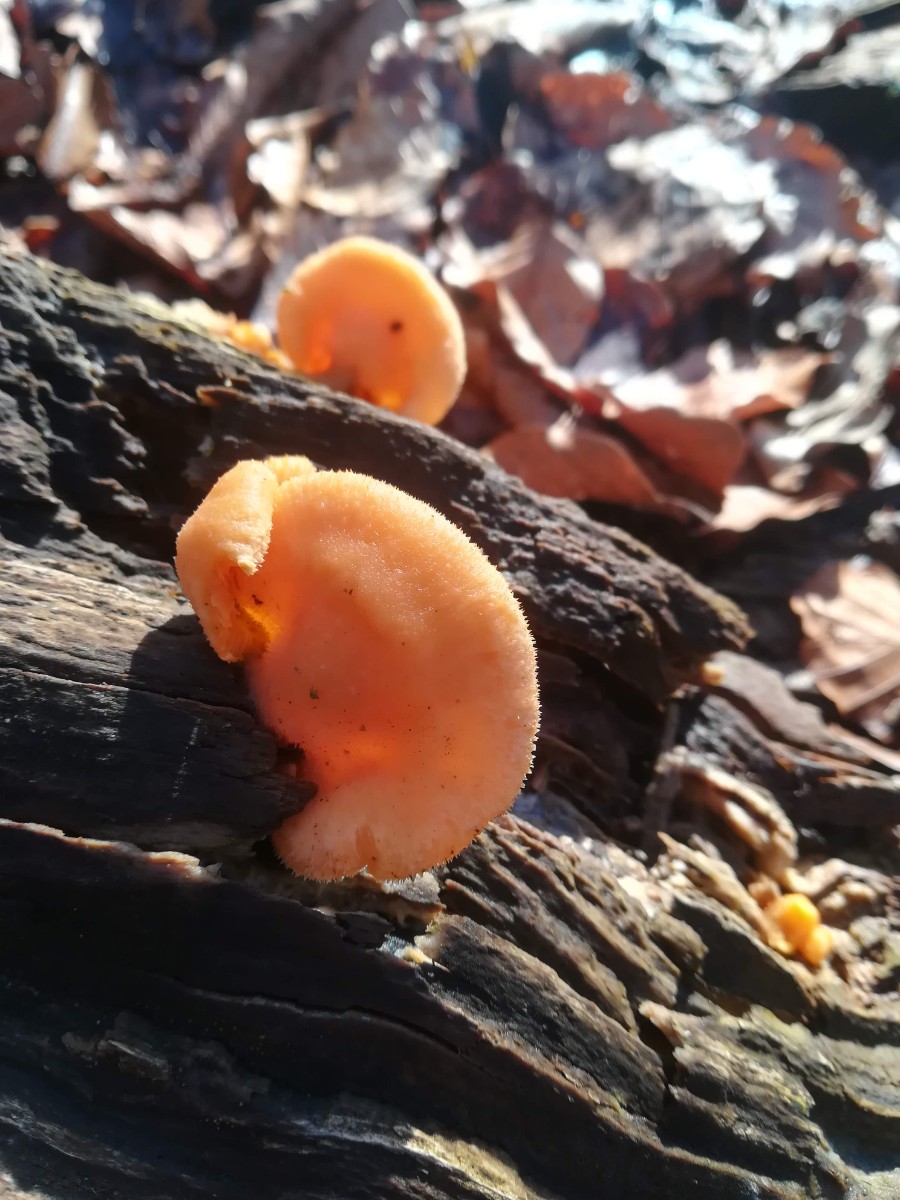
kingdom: Fungi
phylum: Basidiomycota
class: Agaricomycetes
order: Agaricales
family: Phyllotopsidaceae
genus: Phyllotopsis
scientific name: Phyllotopsis nidulans
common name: okkerblad
